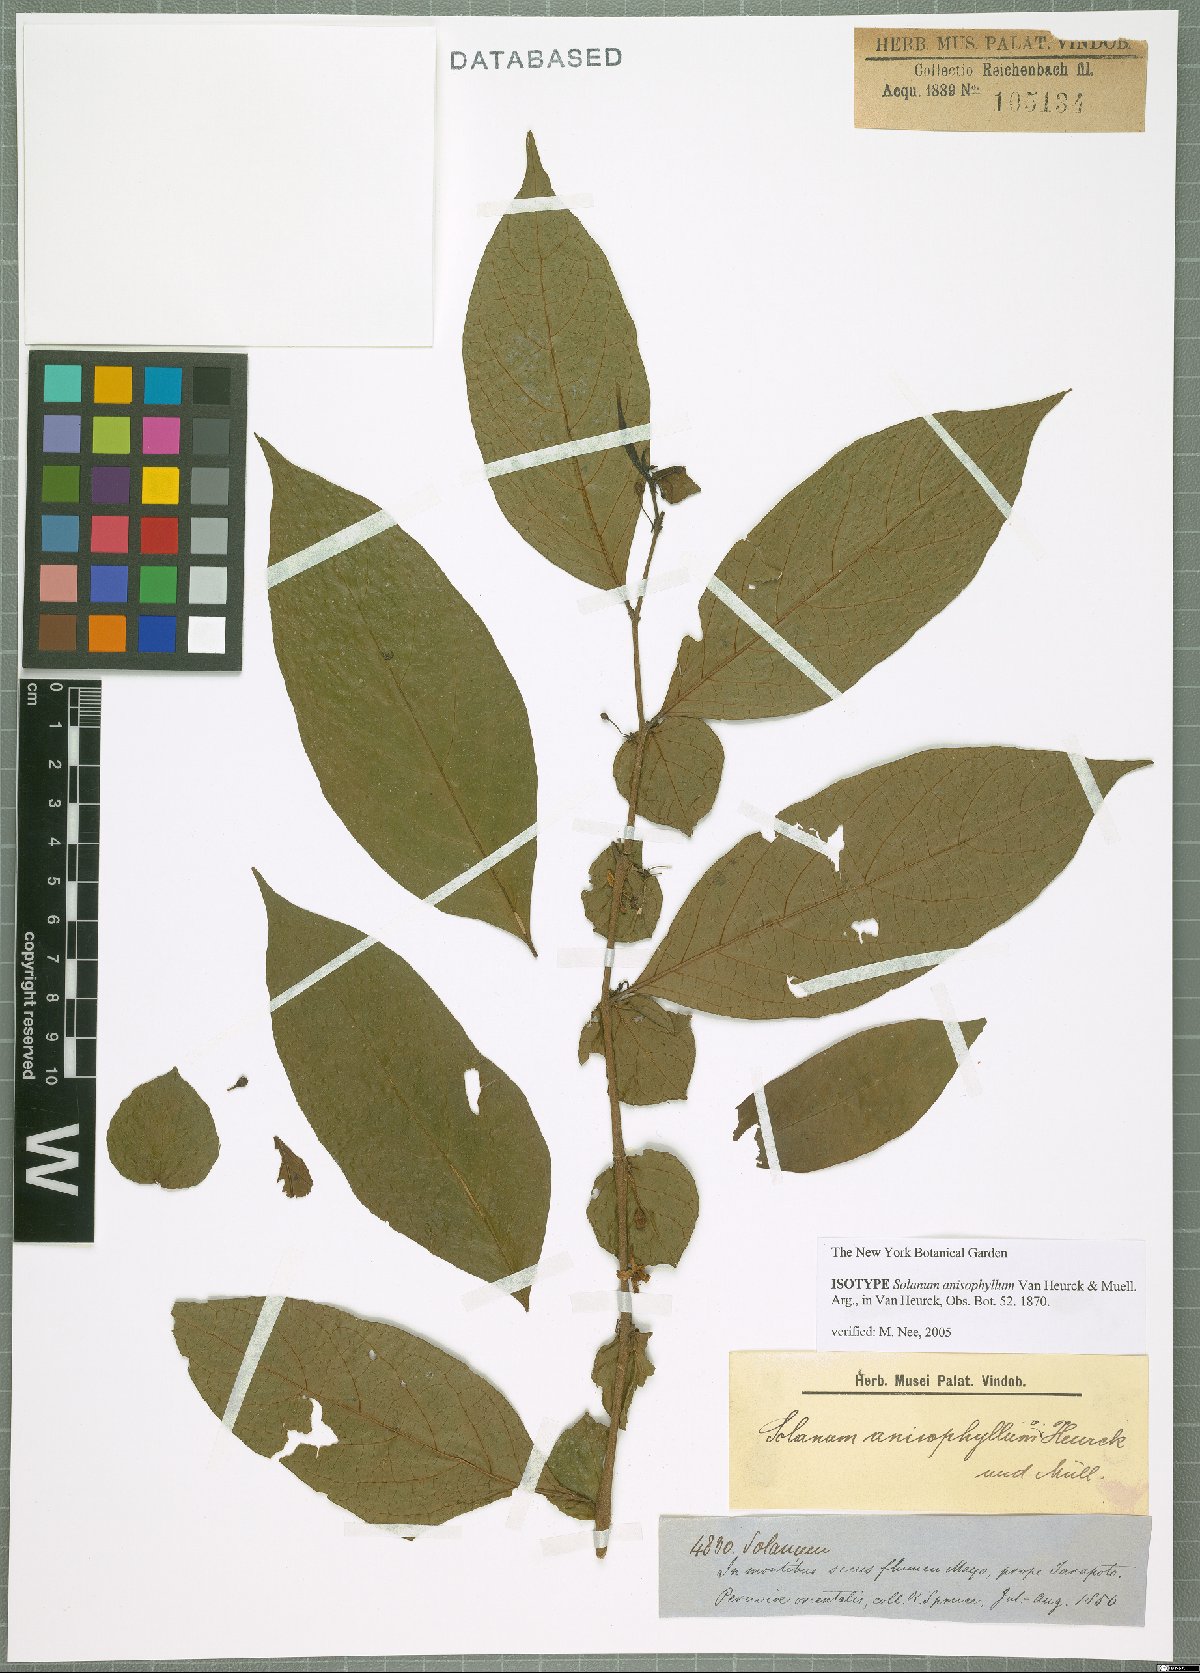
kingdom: Plantae
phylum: Tracheophyta
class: Magnoliopsida
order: Solanales
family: Solanaceae
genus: Solanum
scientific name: Solanum anisophyllum
